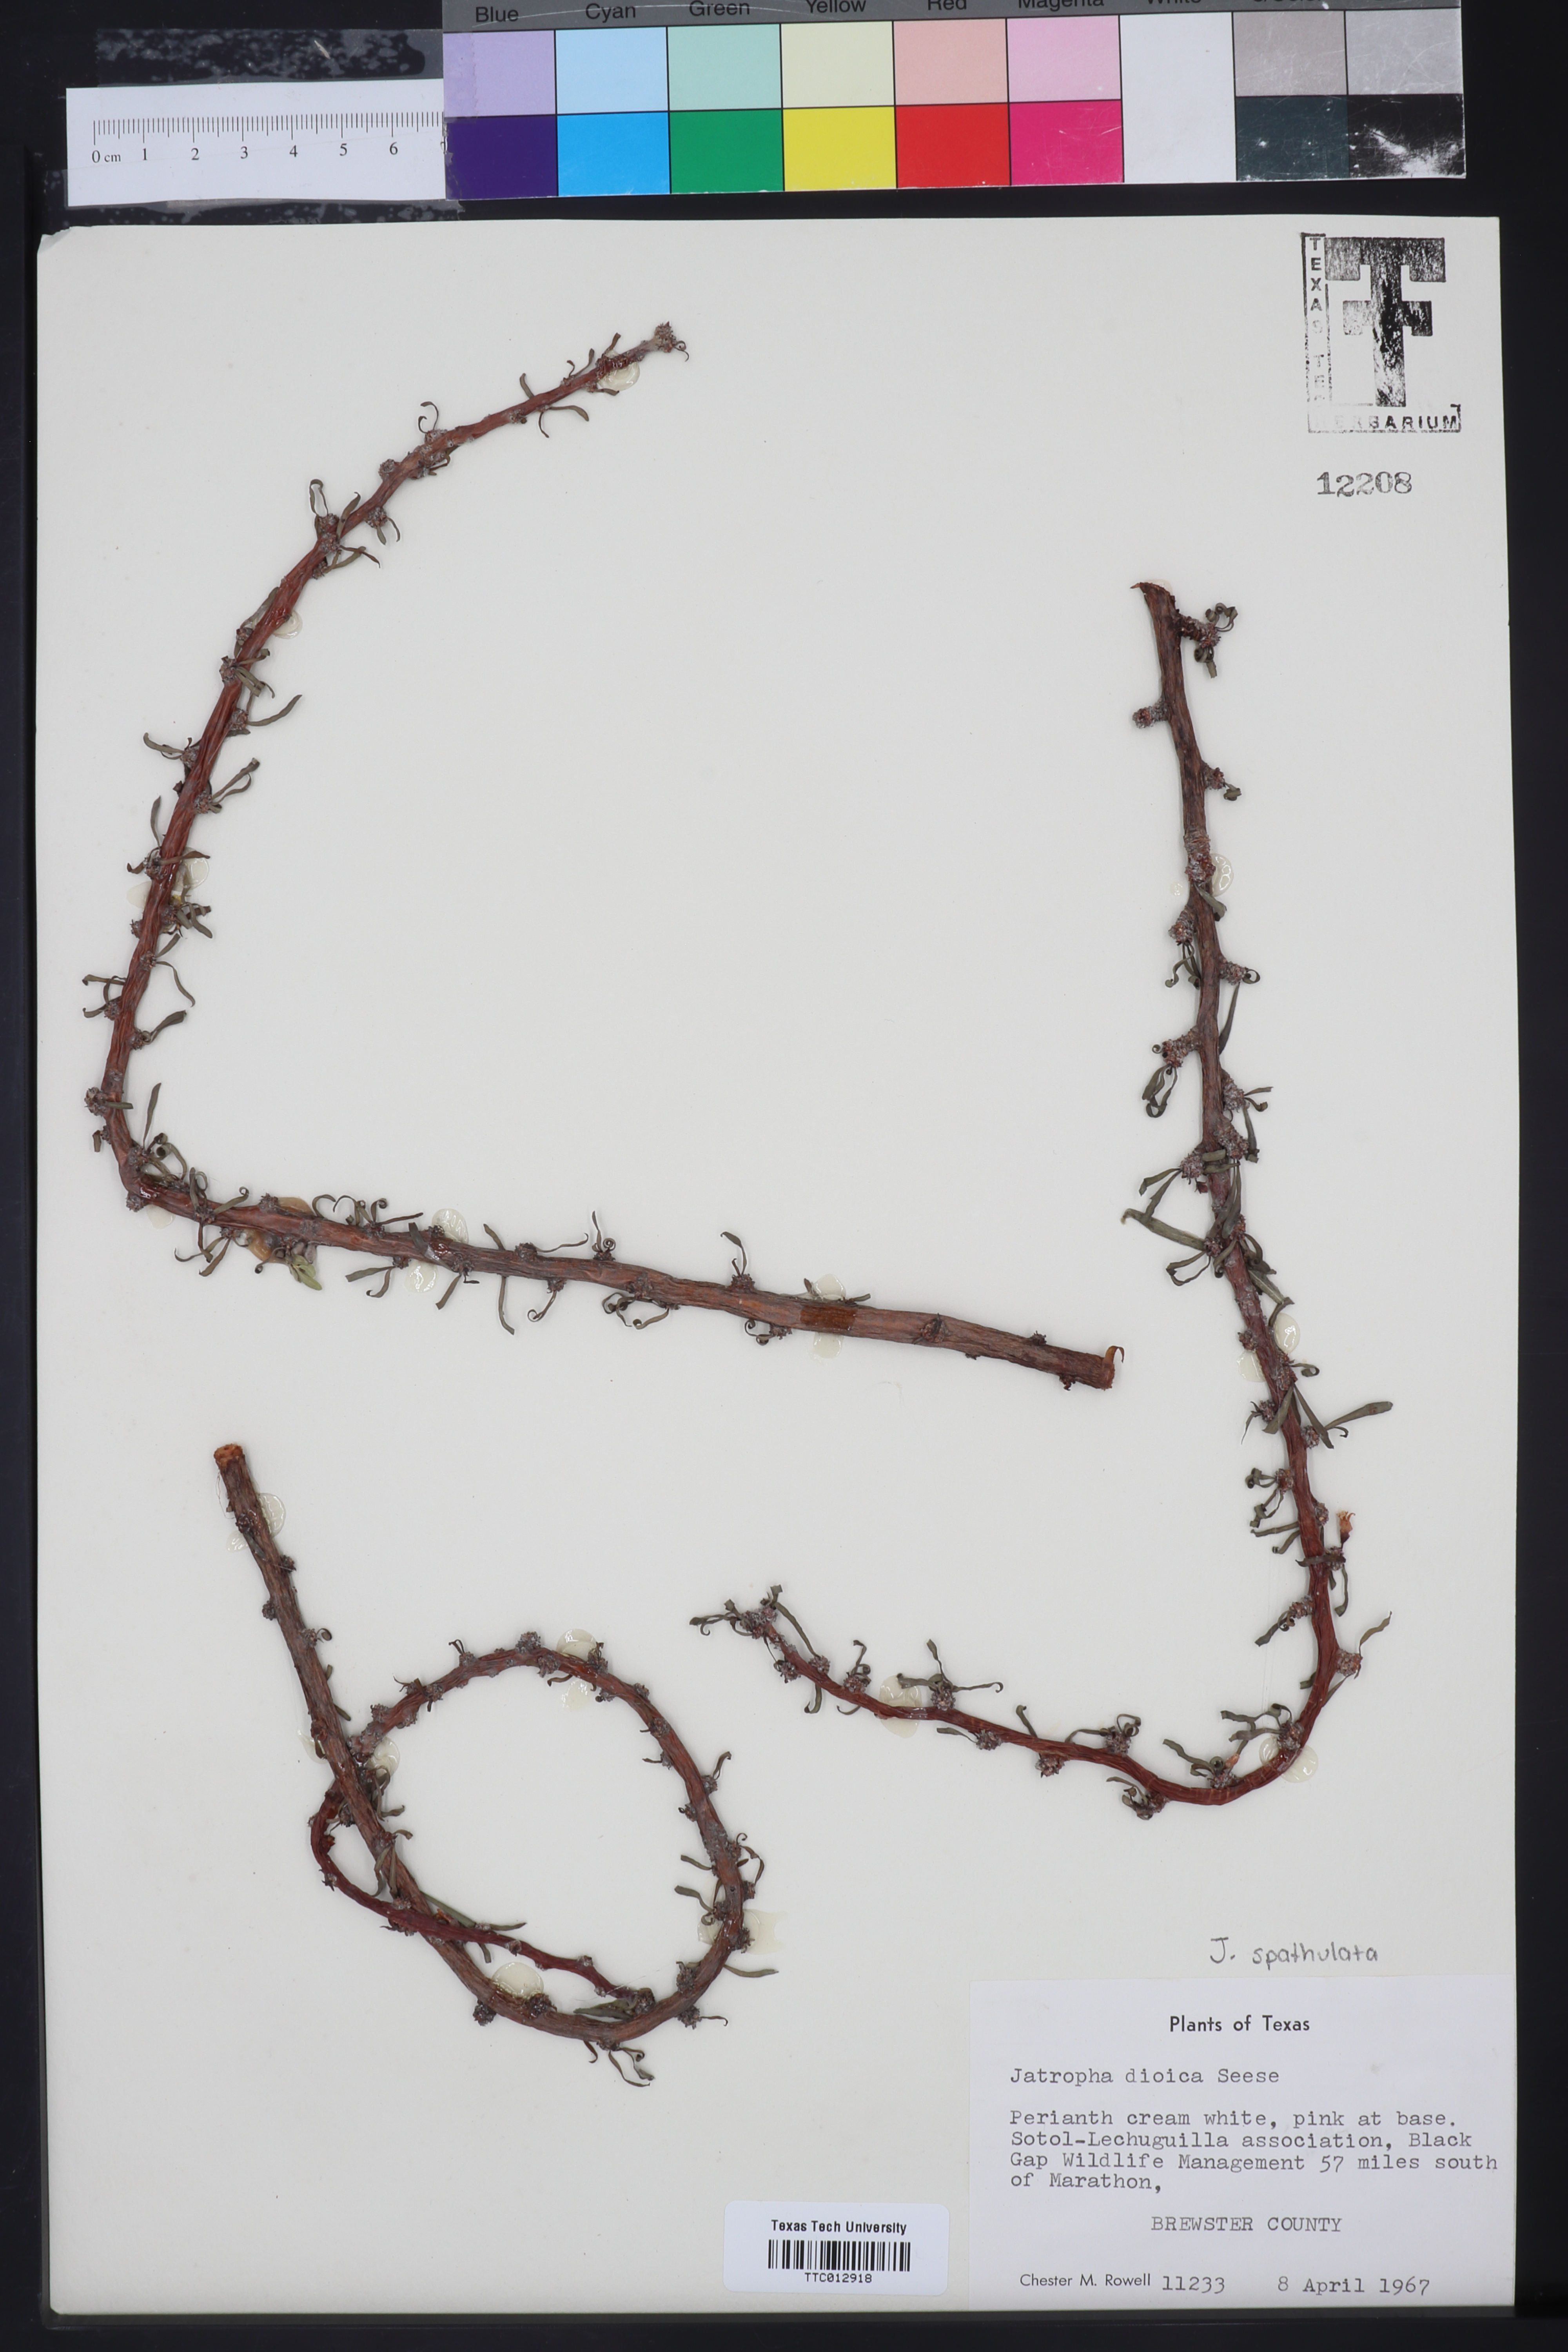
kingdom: Plantae
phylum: Tracheophyta
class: Magnoliopsida
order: Malpighiales
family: Euphorbiaceae
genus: Jatropha
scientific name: Jatropha dioica
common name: Leatherstem
